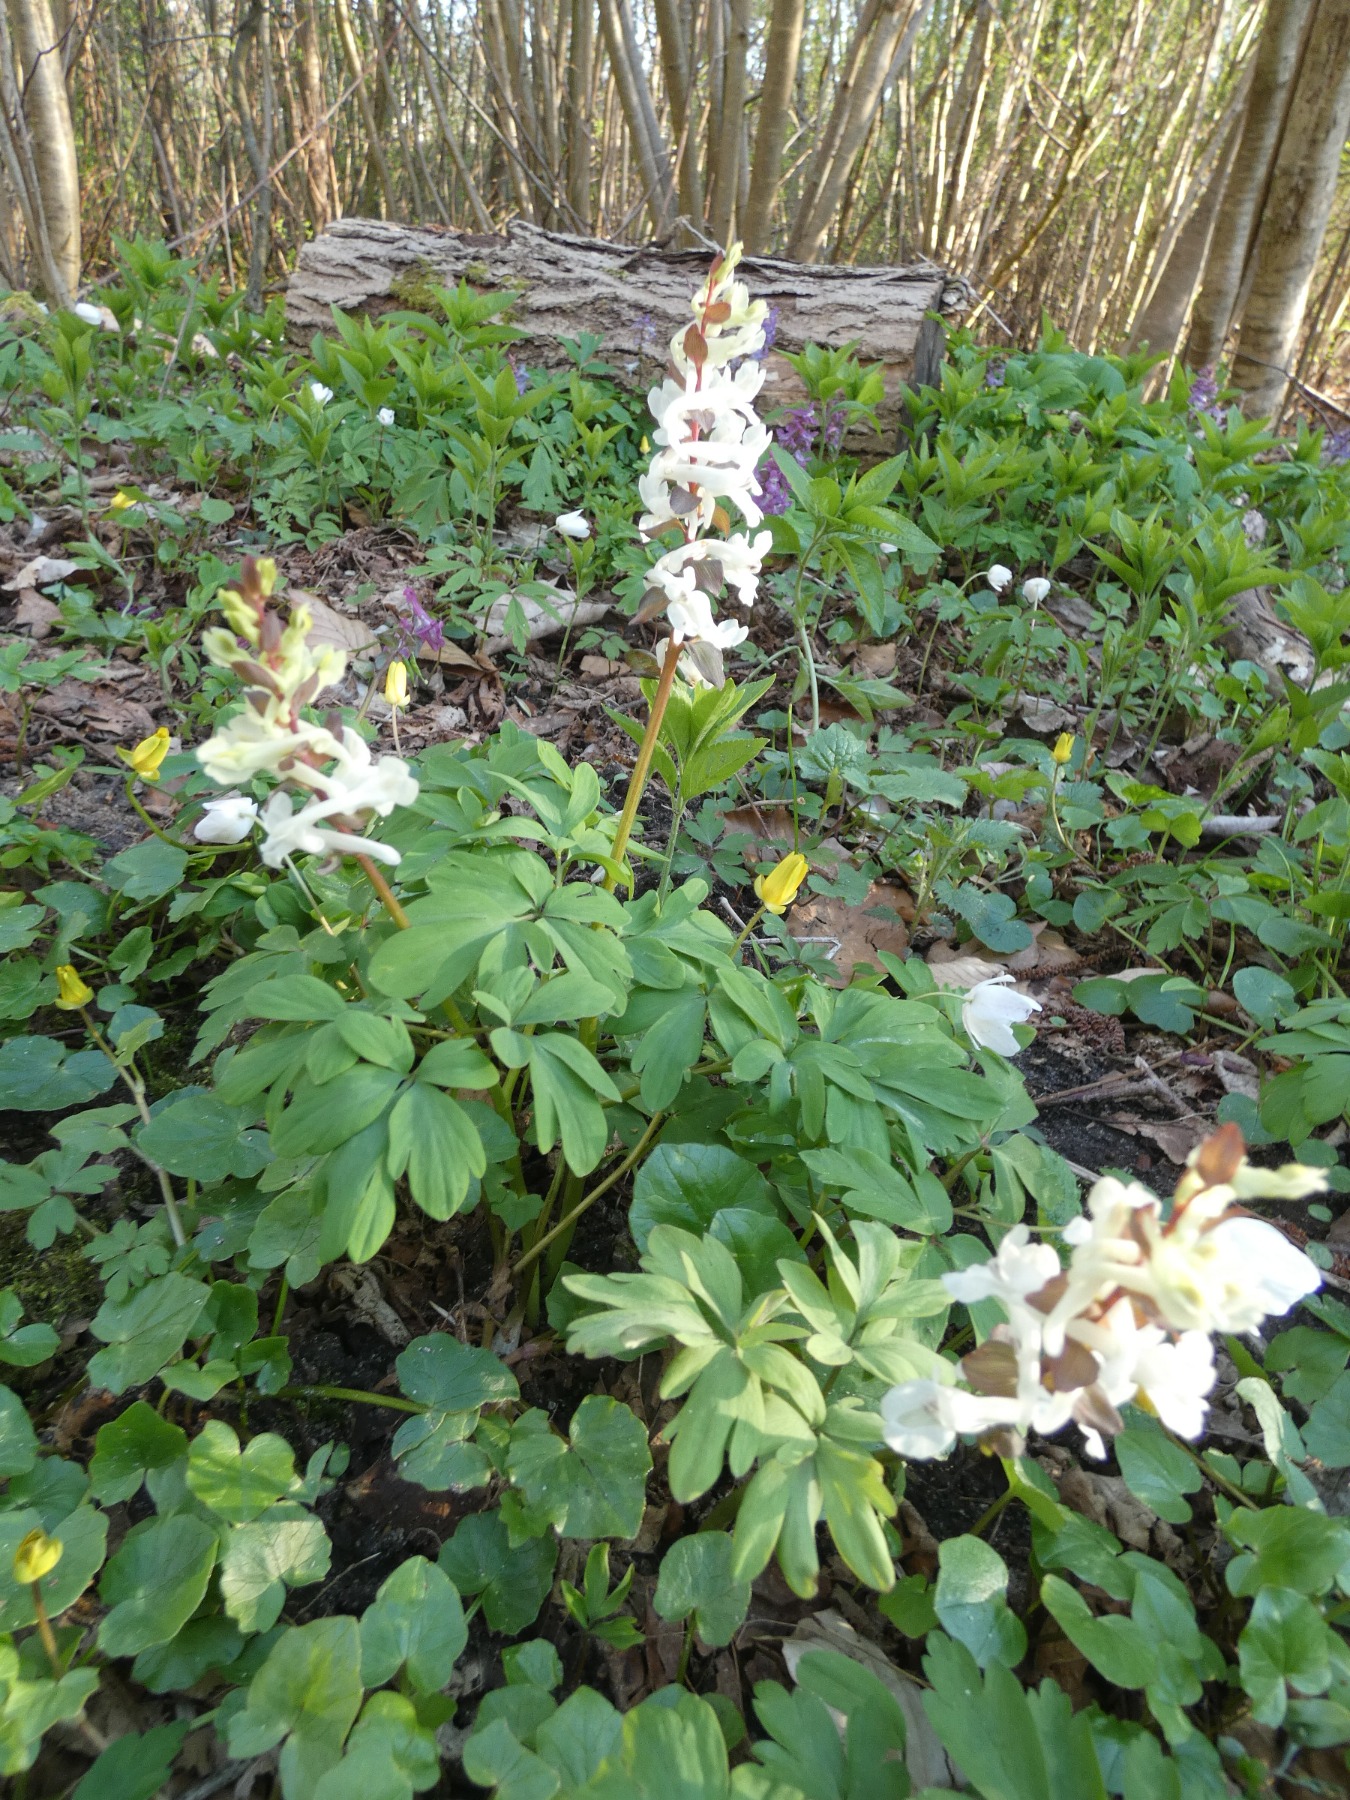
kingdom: Plantae
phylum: Tracheophyta
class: Magnoliopsida
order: Ranunculales
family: Papaveraceae
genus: Corydalis
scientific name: Corydalis cava
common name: Hulrodet lærkespore
